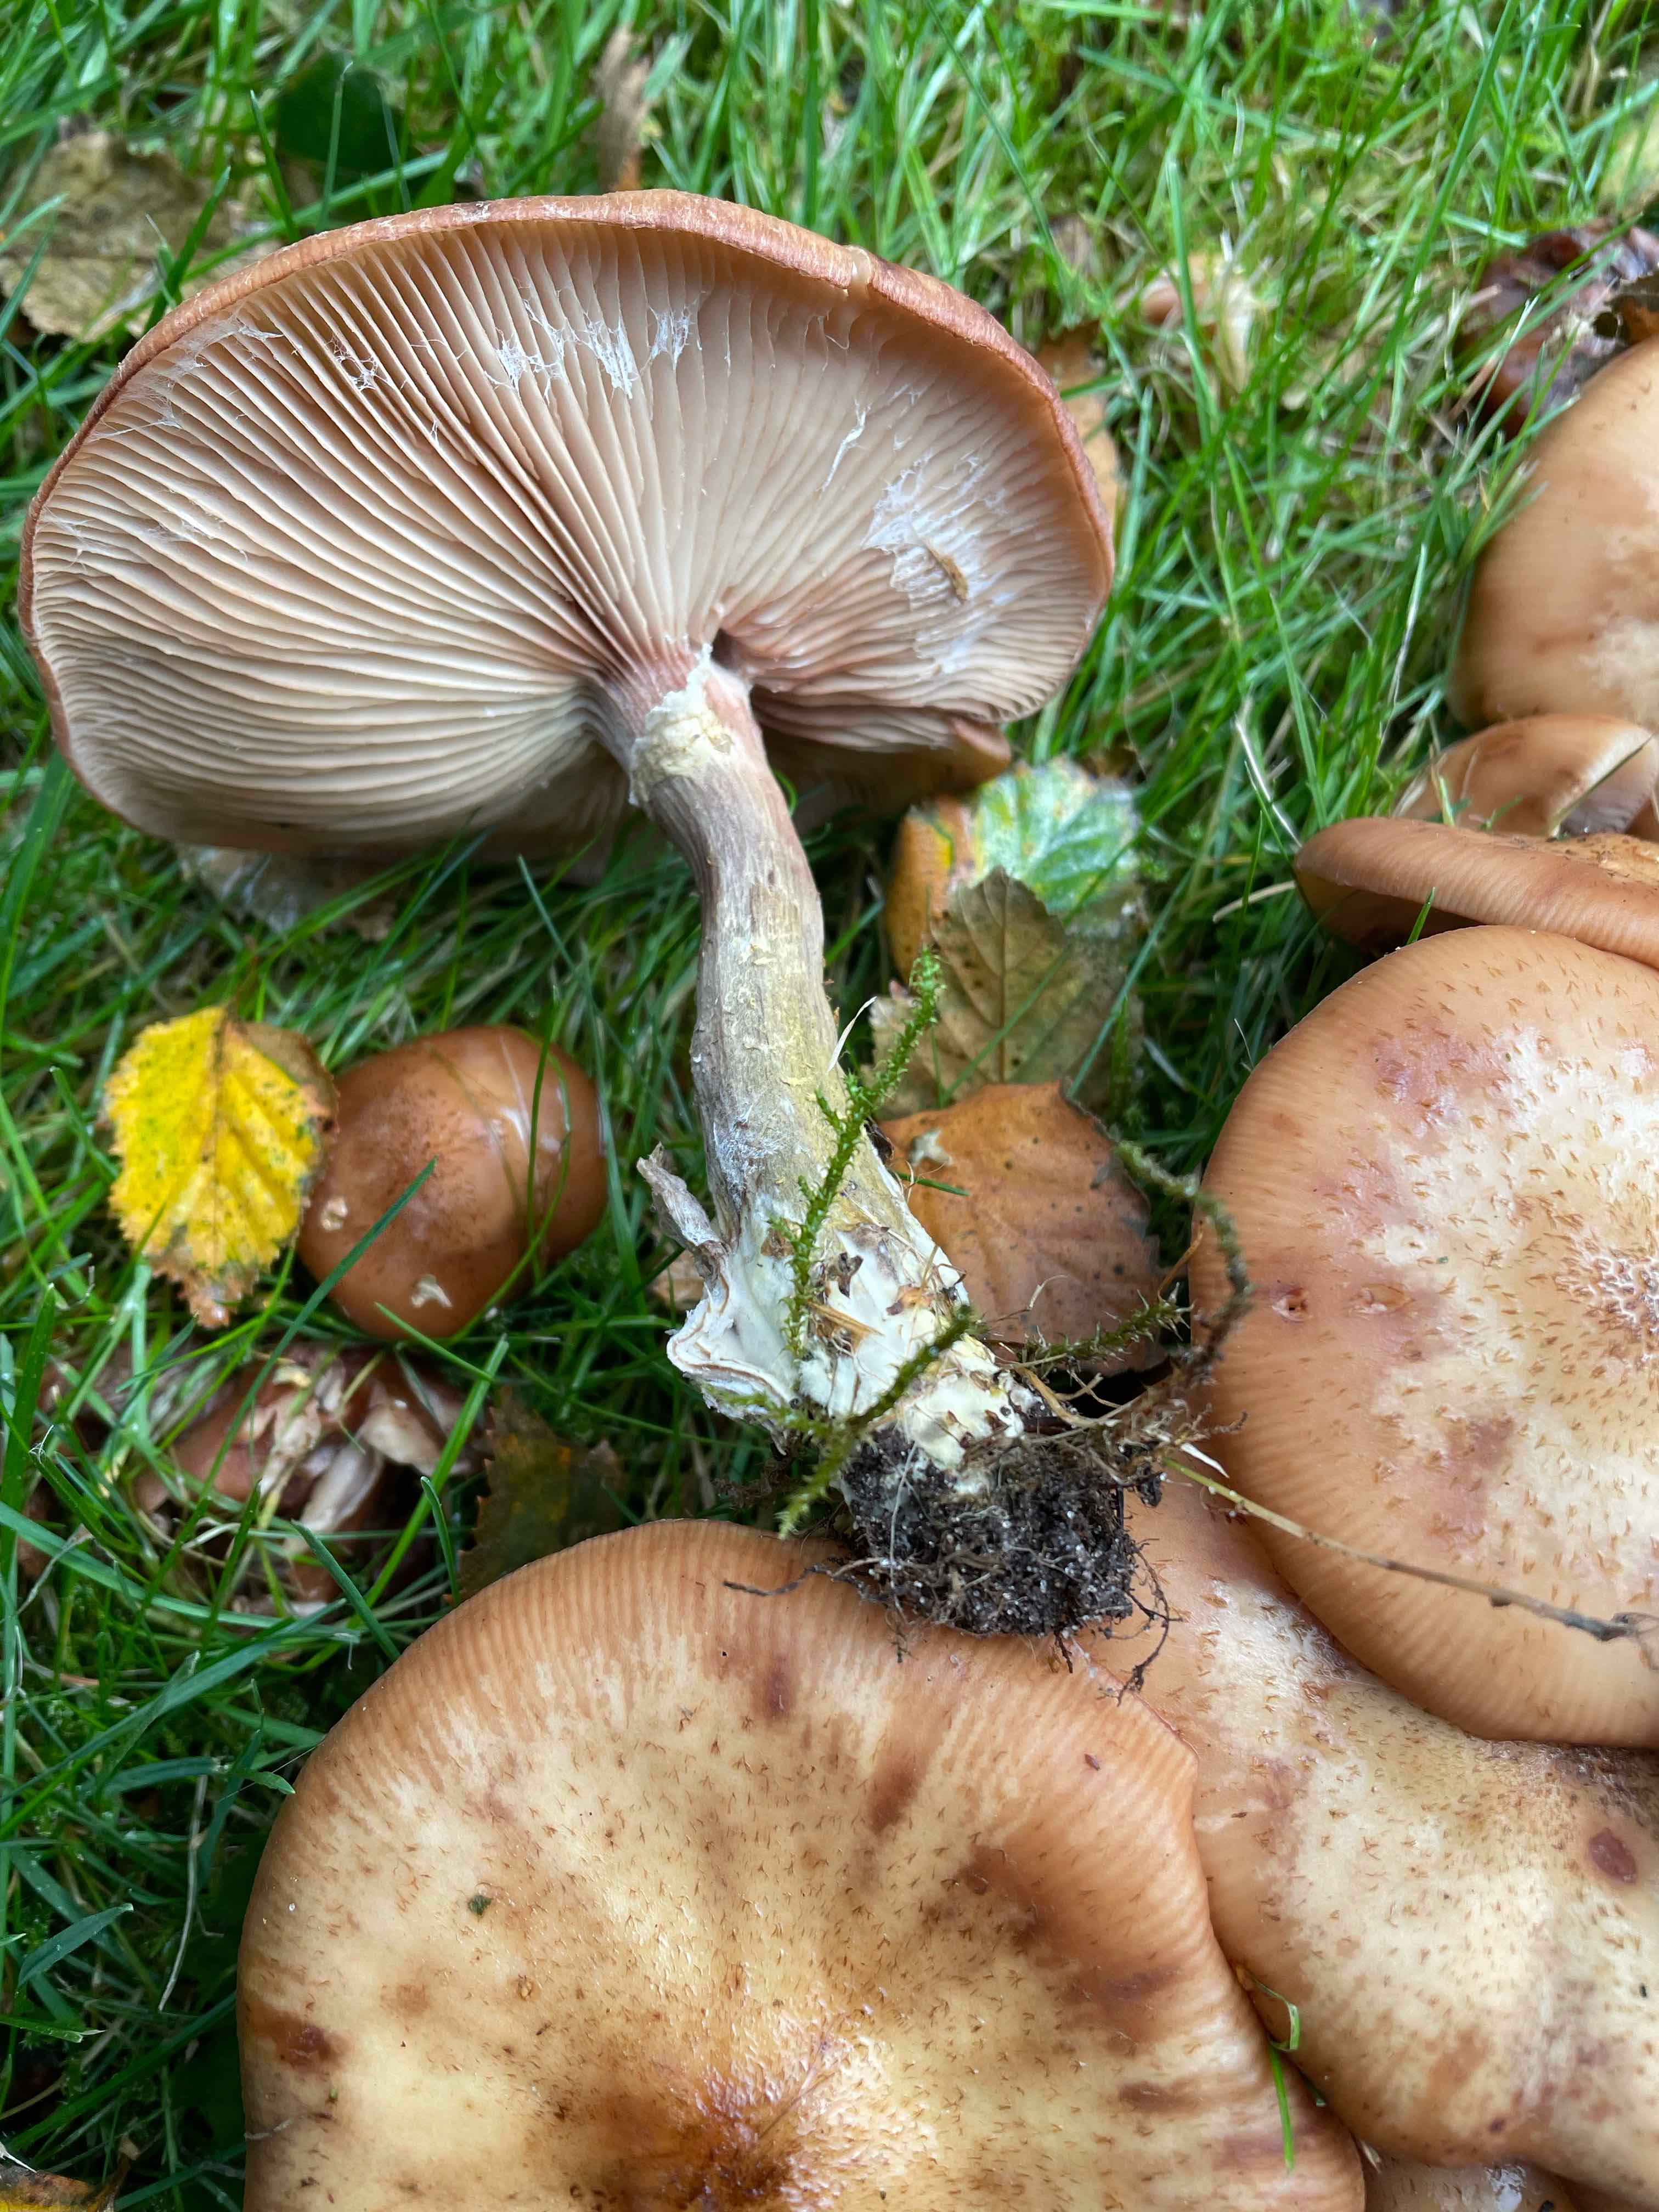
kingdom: Fungi
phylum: Basidiomycota
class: Agaricomycetes
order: Agaricales
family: Physalacriaceae
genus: Armillaria
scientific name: Armillaria lutea
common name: køllestokket honningsvamp
